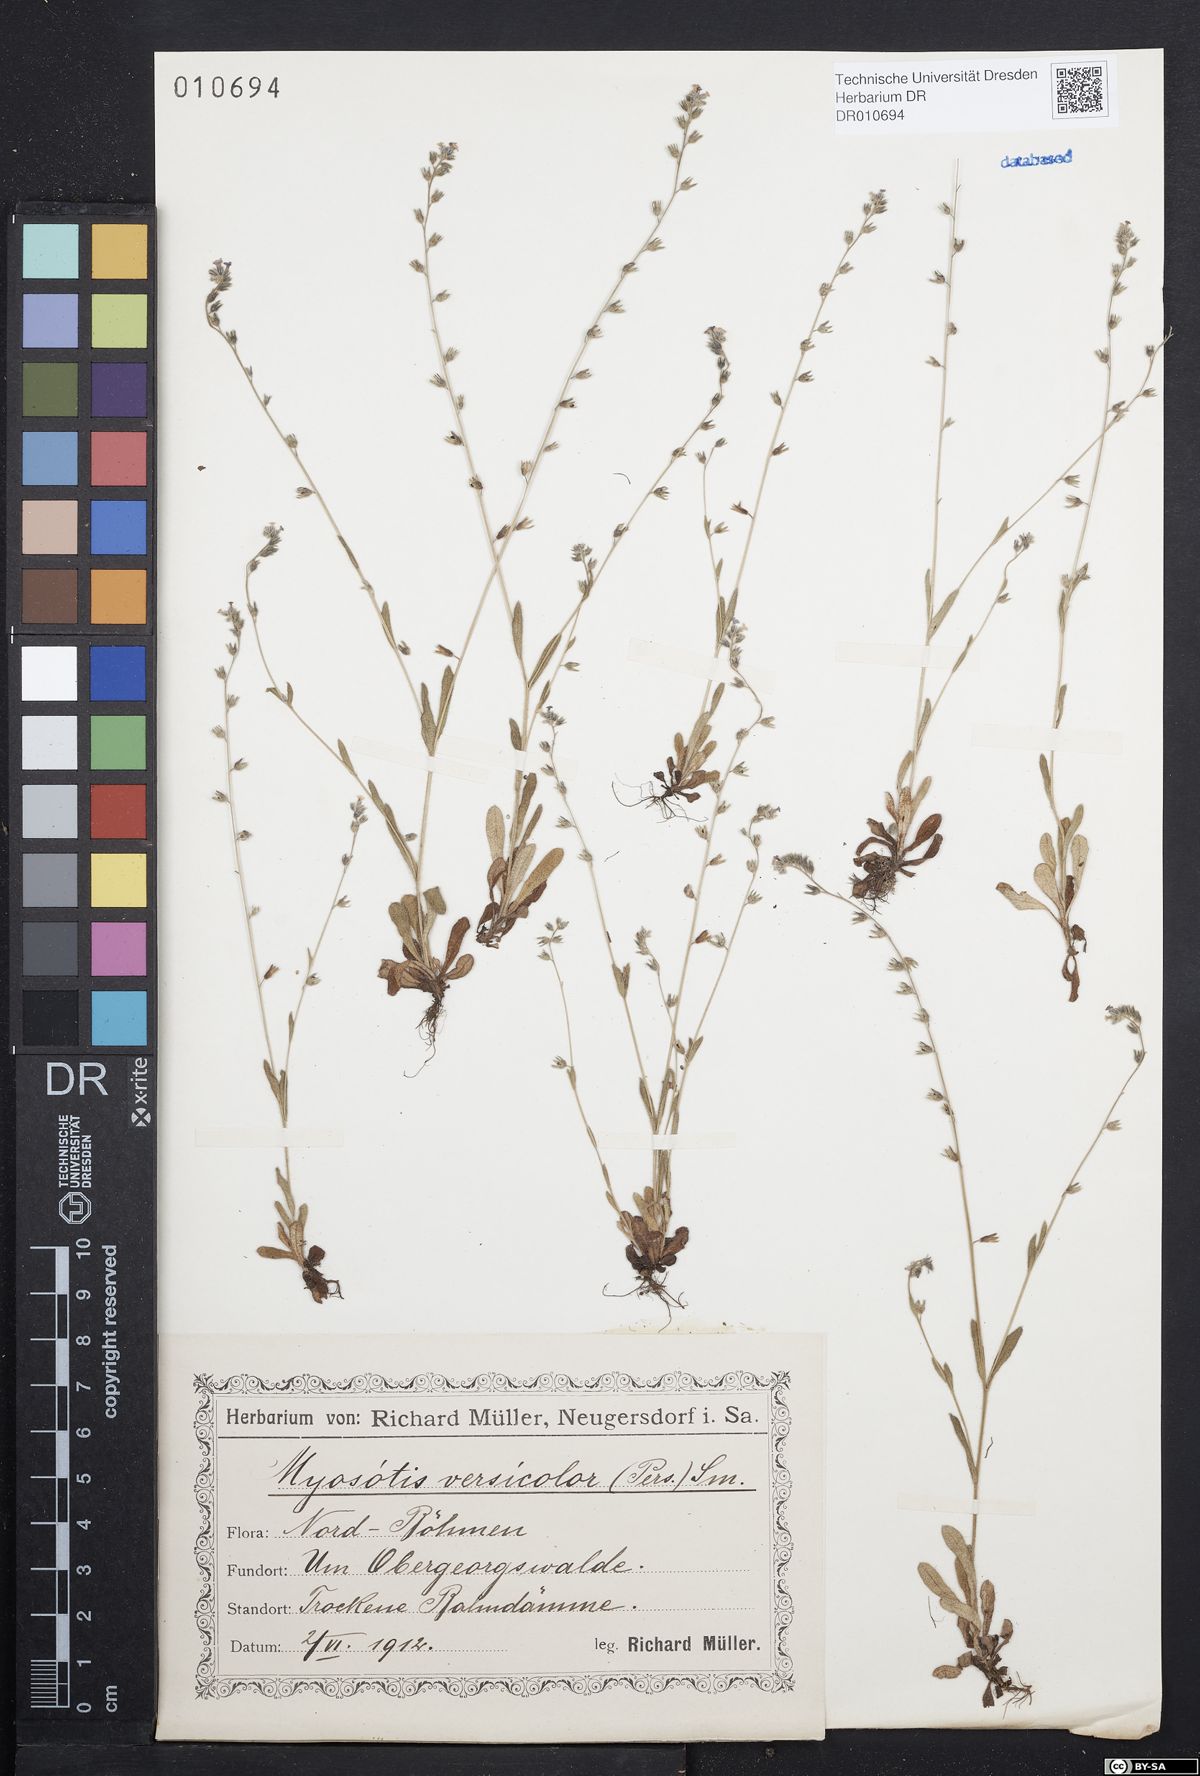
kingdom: Plantae
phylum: Tracheophyta
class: Magnoliopsida
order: Boraginales
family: Boraginaceae
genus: Myosotis
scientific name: Myosotis discolor
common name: Changing forget-me-not
